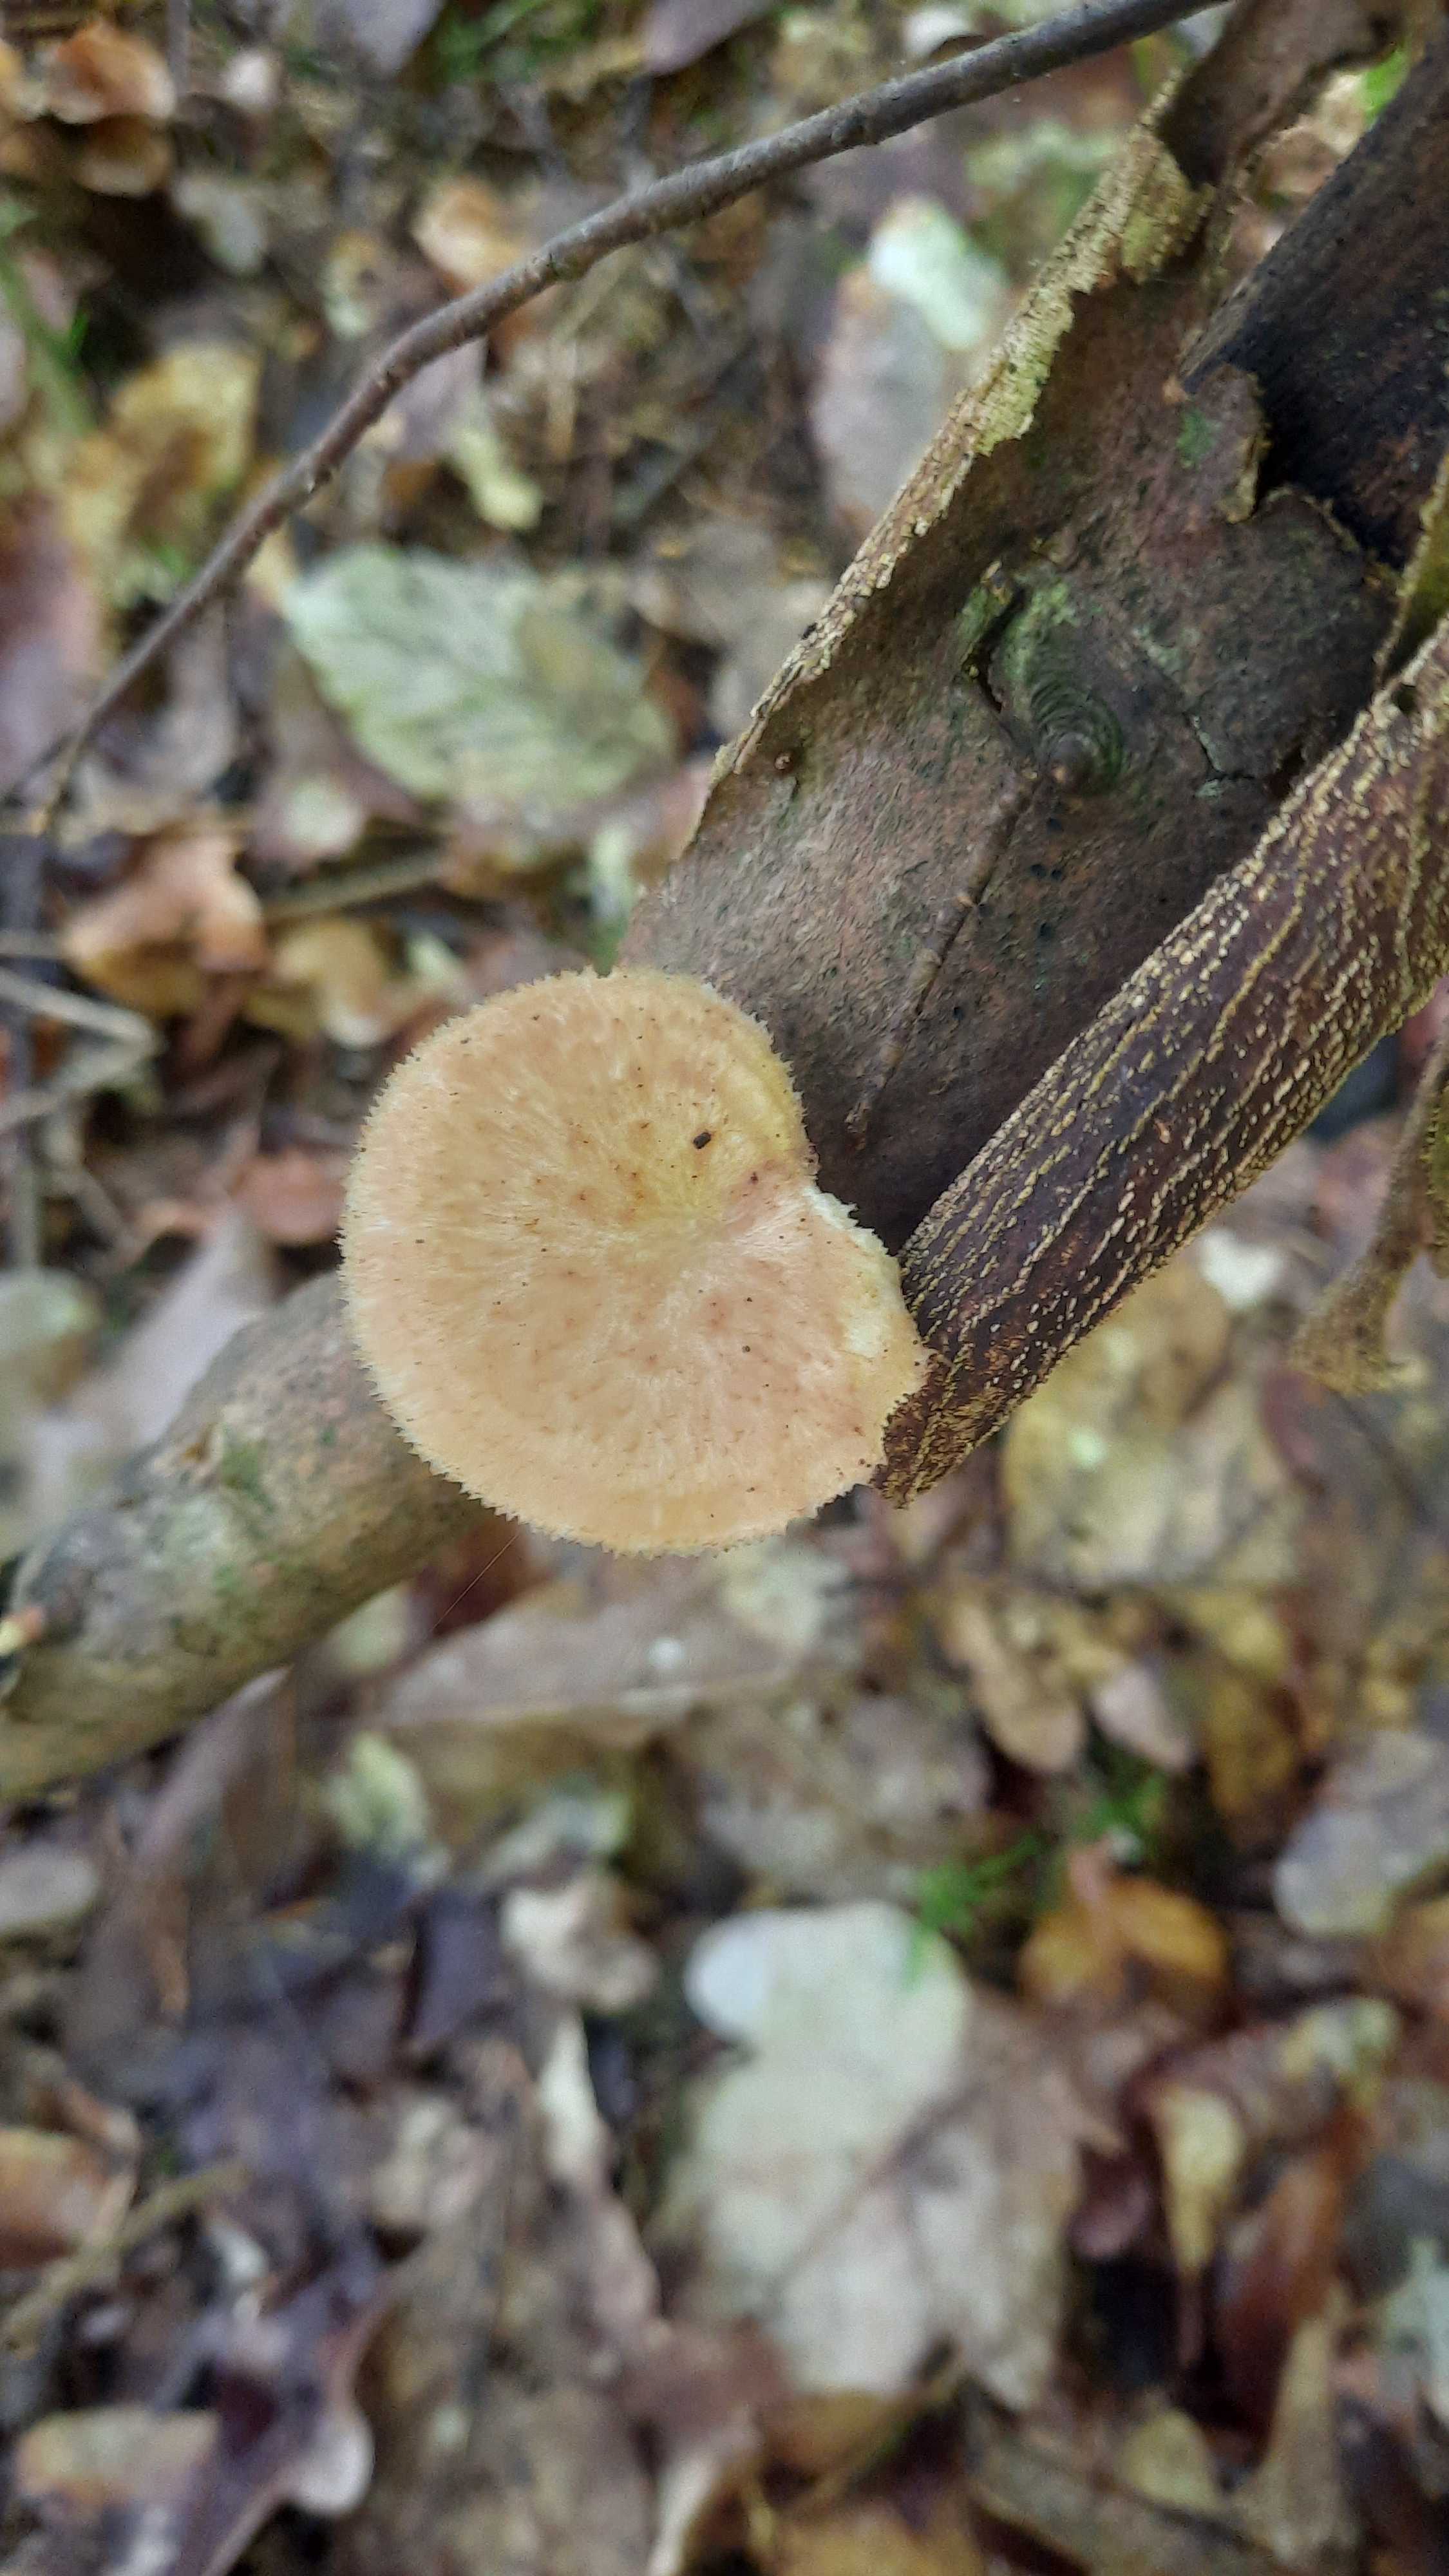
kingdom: Fungi
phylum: Basidiomycota
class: Agaricomycetes
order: Polyporales
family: Polyporaceae
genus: Polyporus
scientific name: Polyporus tuberaster
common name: knoldet stilkporesvamp
